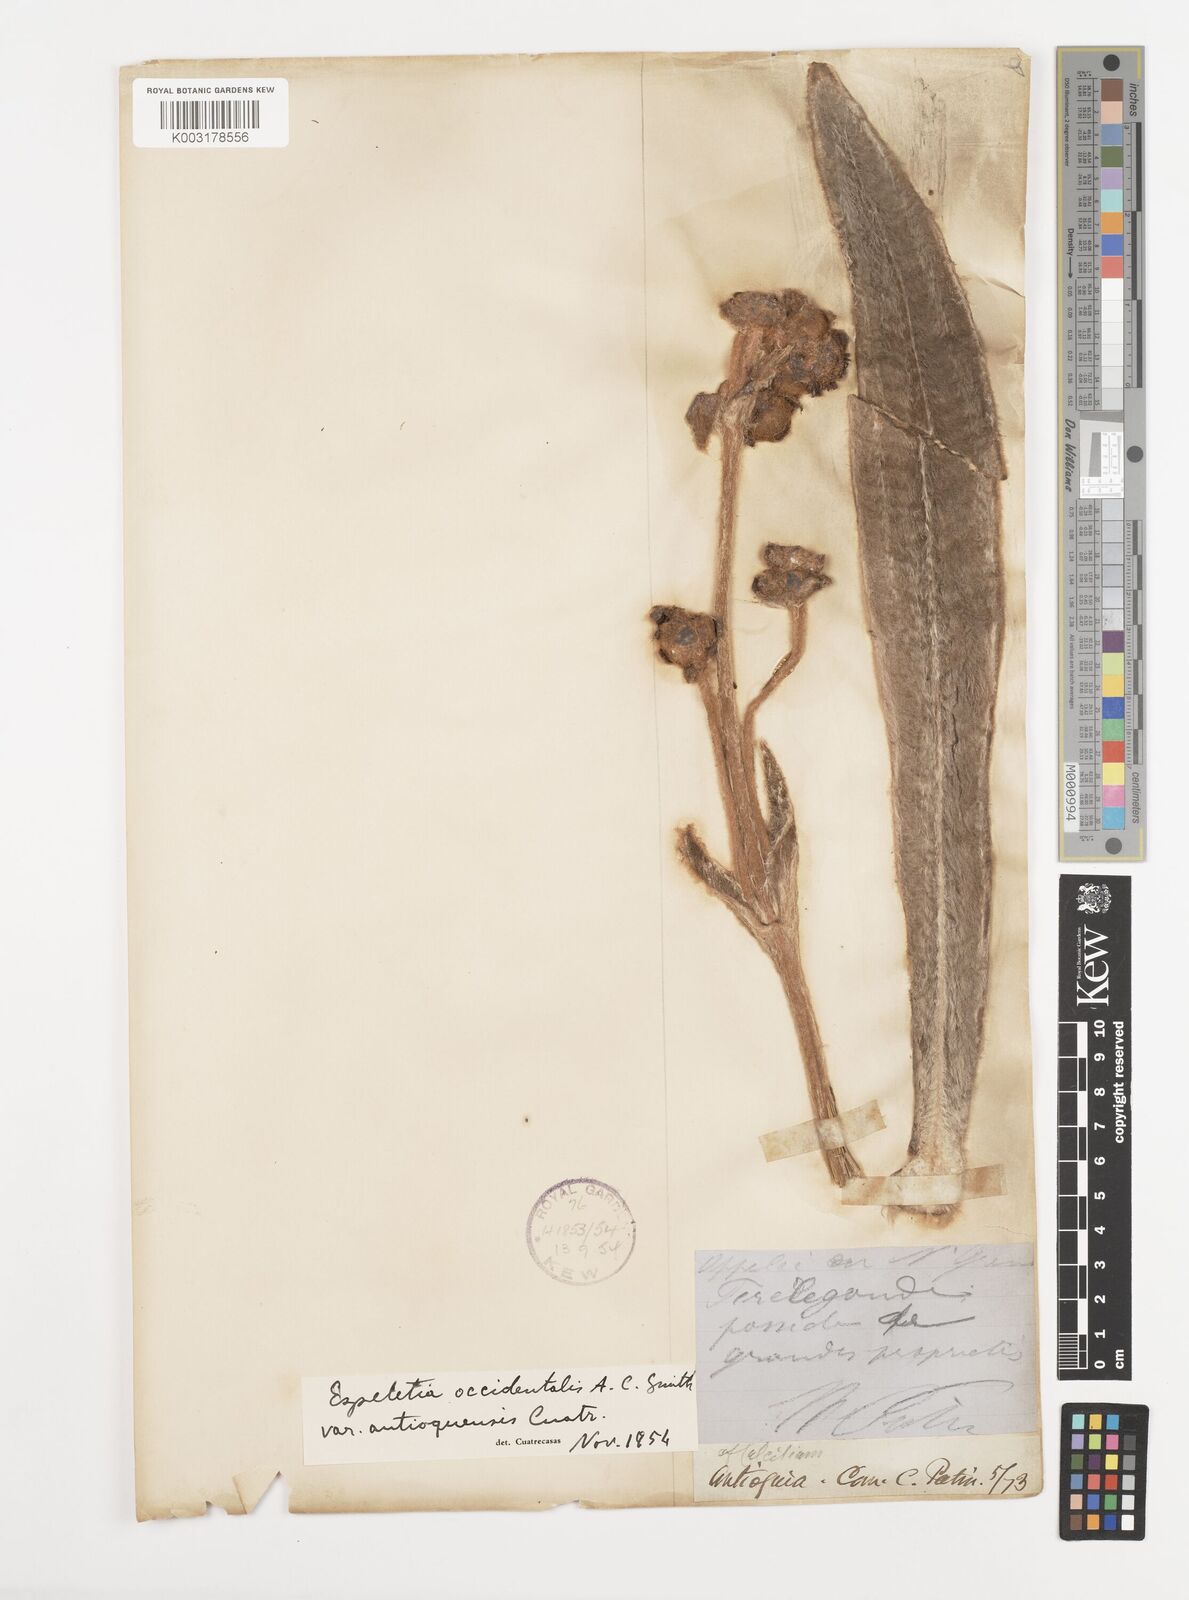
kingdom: Plantae
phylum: Tracheophyta
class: Magnoliopsida
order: Asterales
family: Asteraceae
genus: Espeletia
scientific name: Espeletia occidentalis
